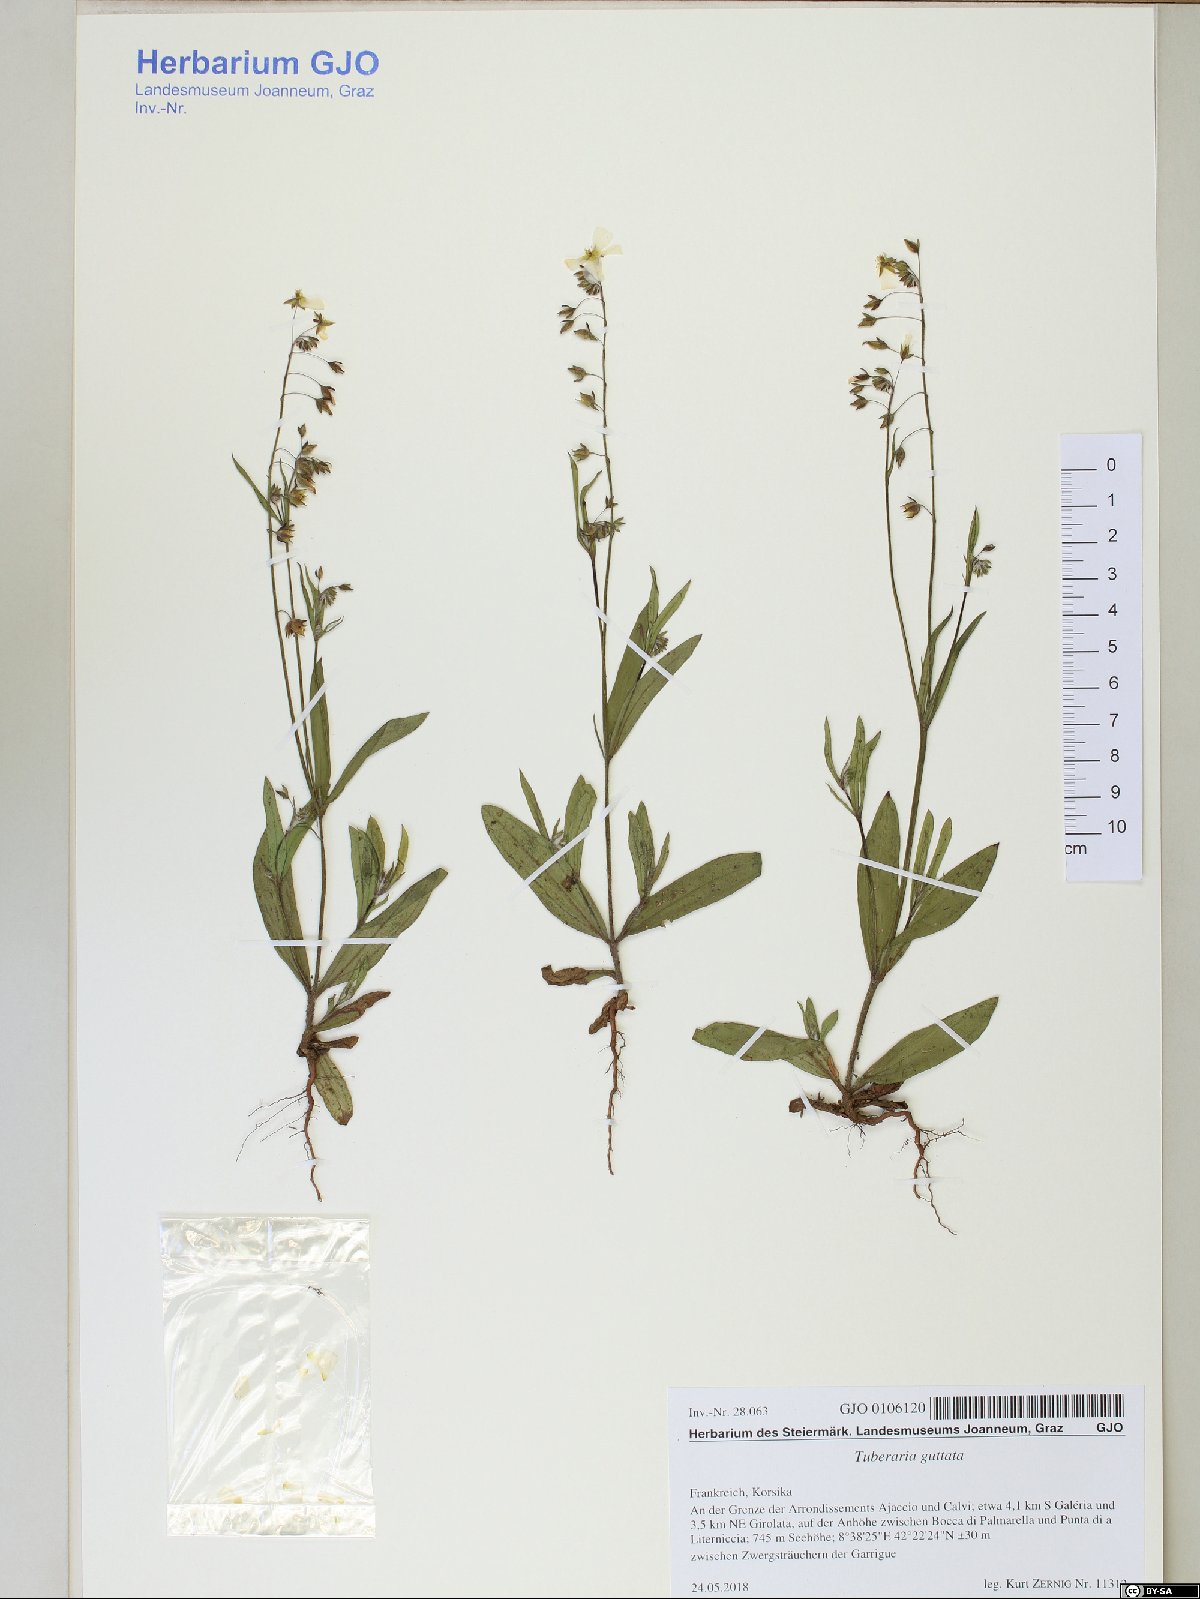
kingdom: Plantae
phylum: Tracheophyta
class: Magnoliopsida
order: Malvales
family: Cistaceae
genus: Tuberaria
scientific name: Tuberaria guttata
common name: Spotted rock-rose
